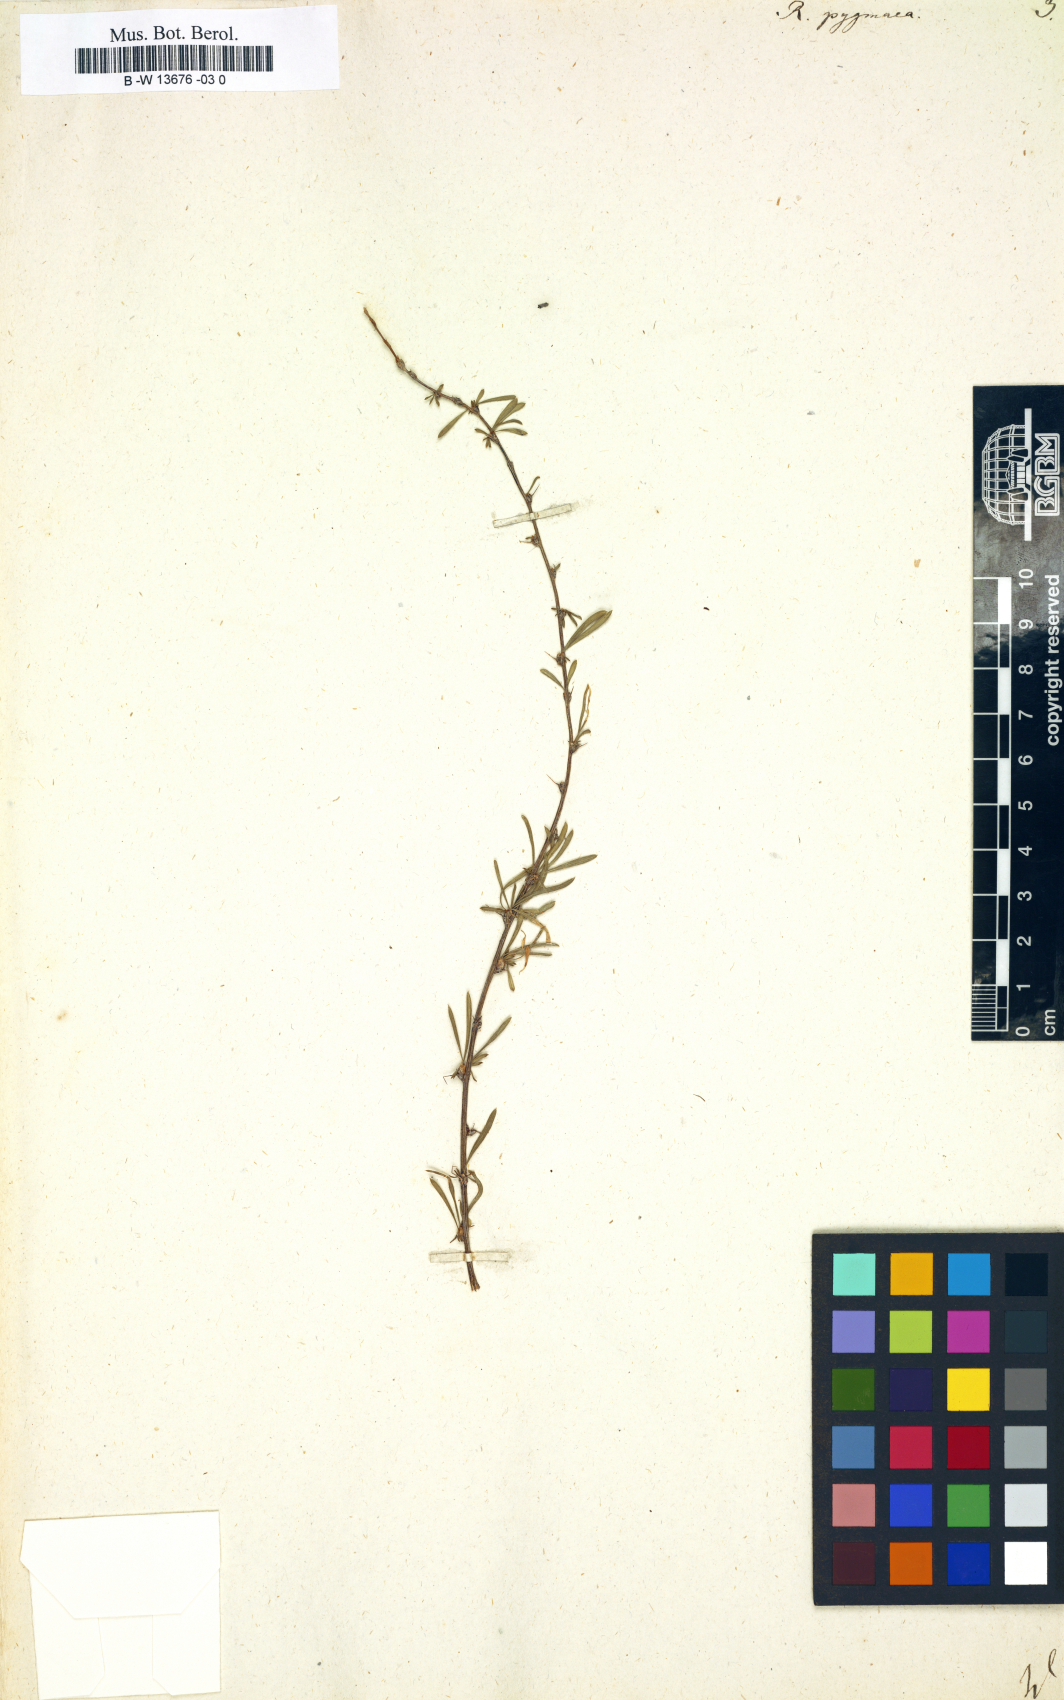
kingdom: Plantae
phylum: Tracheophyta
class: Magnoliopsida
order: Fabales
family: Fabaceae
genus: Caragana
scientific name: Caragana pygmaea
